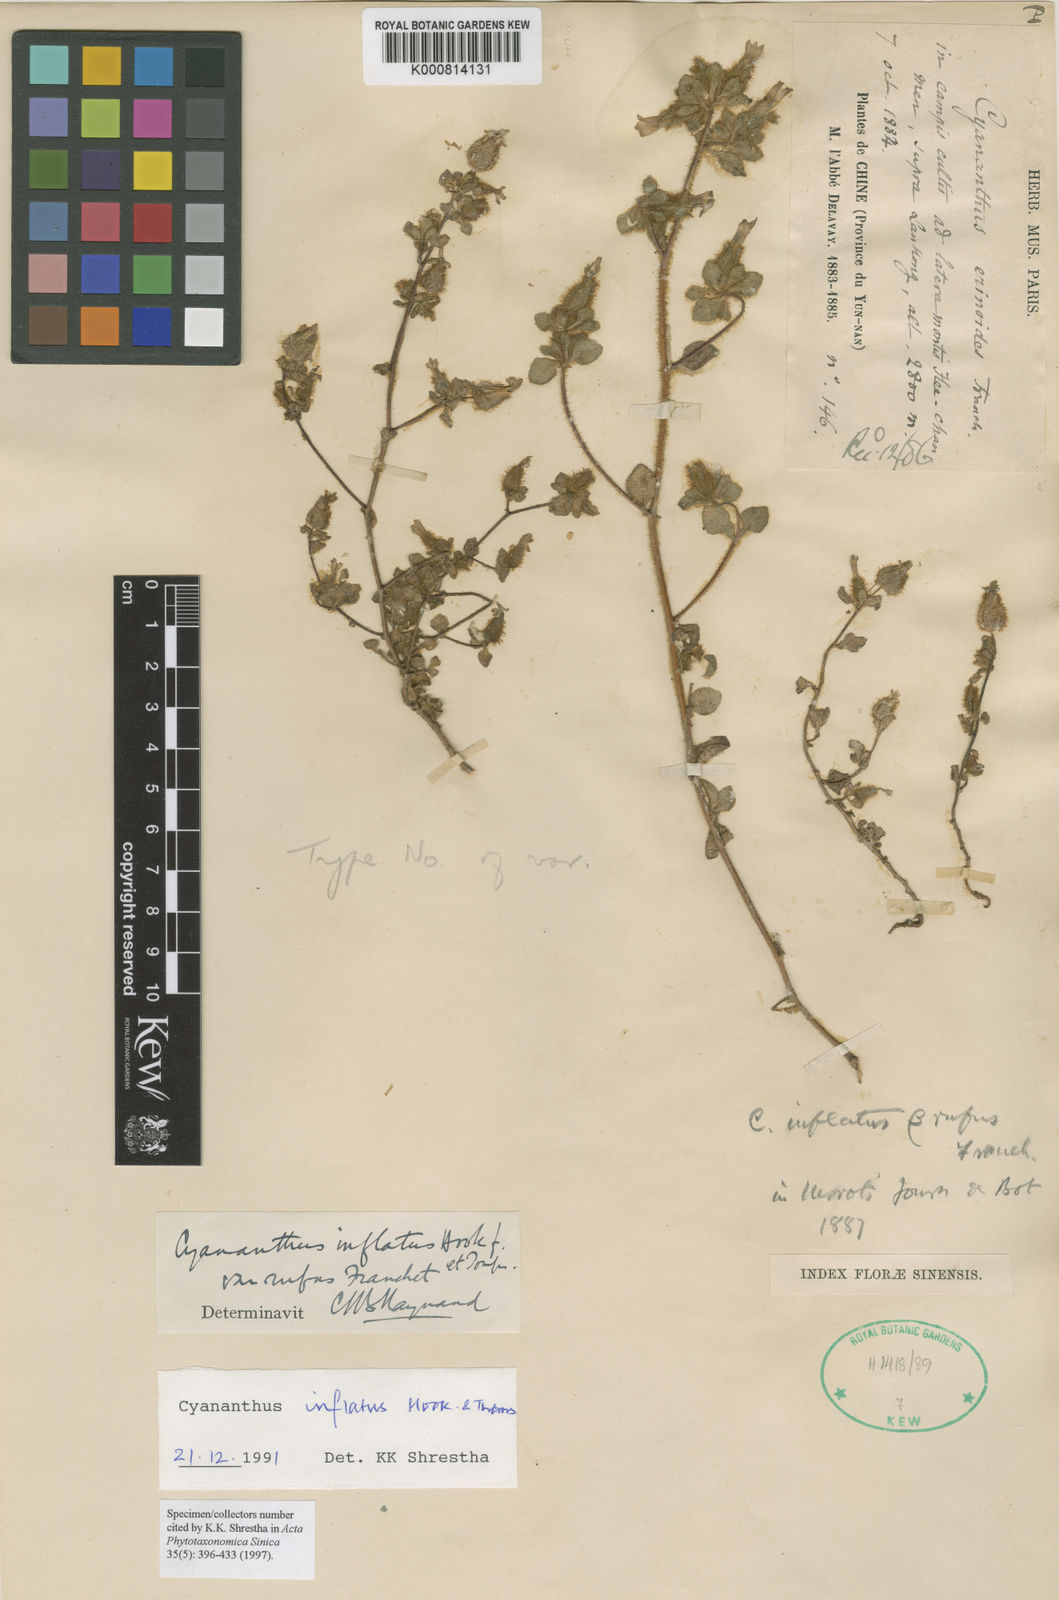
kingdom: Plantae
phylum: Tracheophyta
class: Magnoliopsida
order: Asterales
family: Campanulaceae
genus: Cyananthus
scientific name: Cyananthus inflatus
